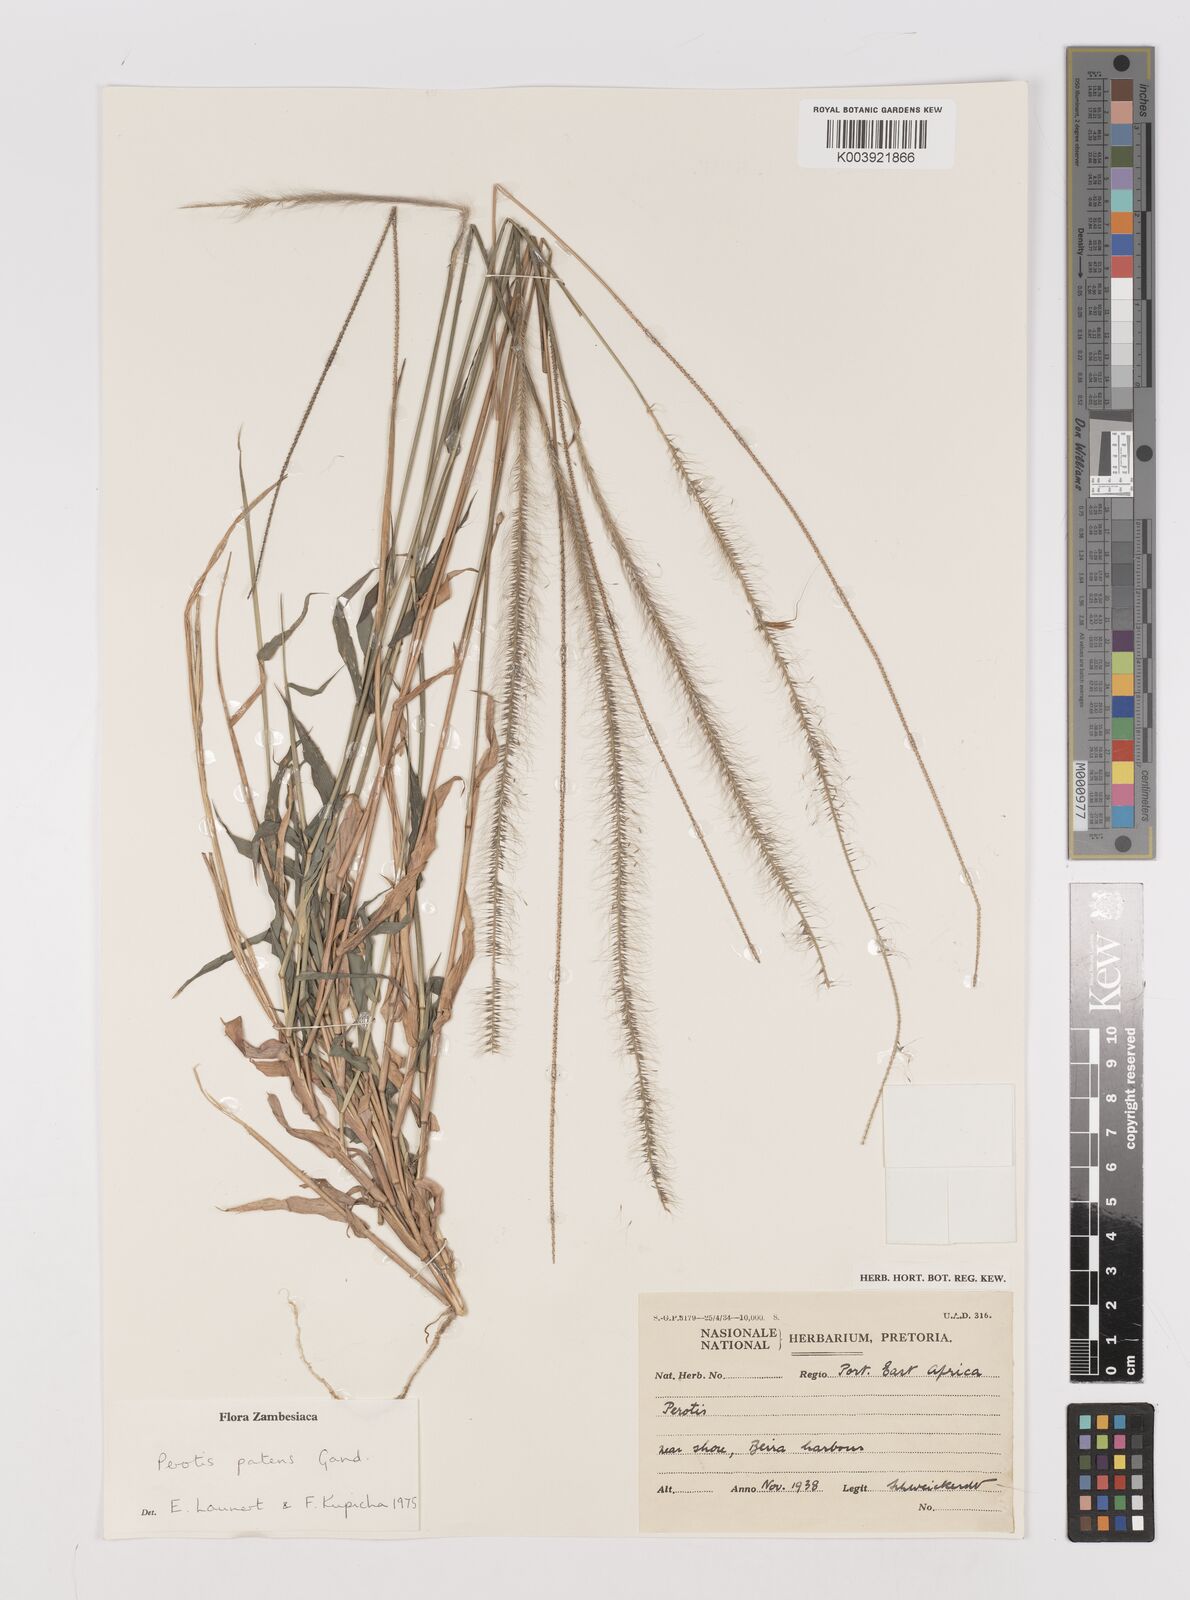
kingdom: Plantae
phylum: Tracheophyta
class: Liliopsida
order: Poales
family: Poaceae
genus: Perotis
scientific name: Perotis patens
